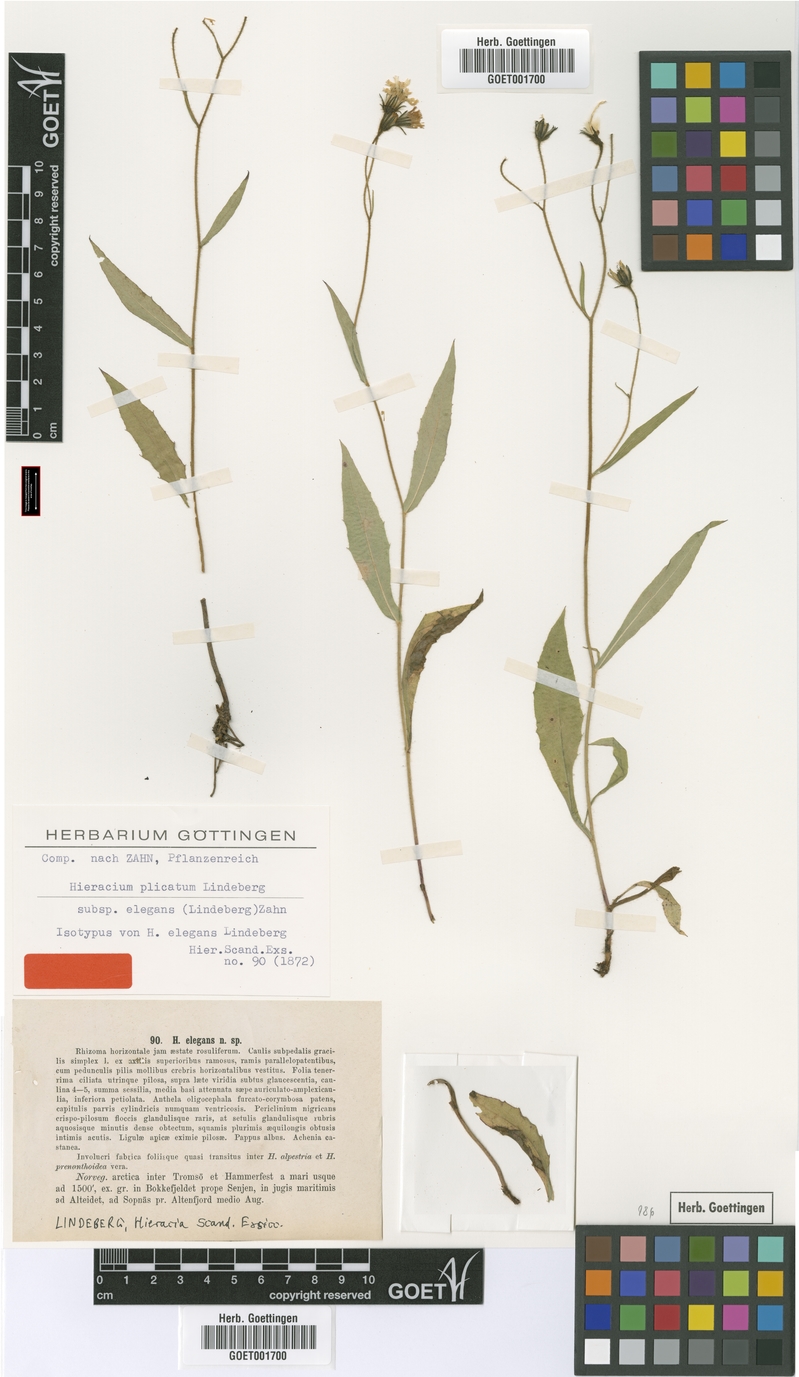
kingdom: Plantae
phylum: Tracheophyta
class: Magnoliopsida
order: Asterales
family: Asteraceae
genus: Hieracium
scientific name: Hieracium elegans
